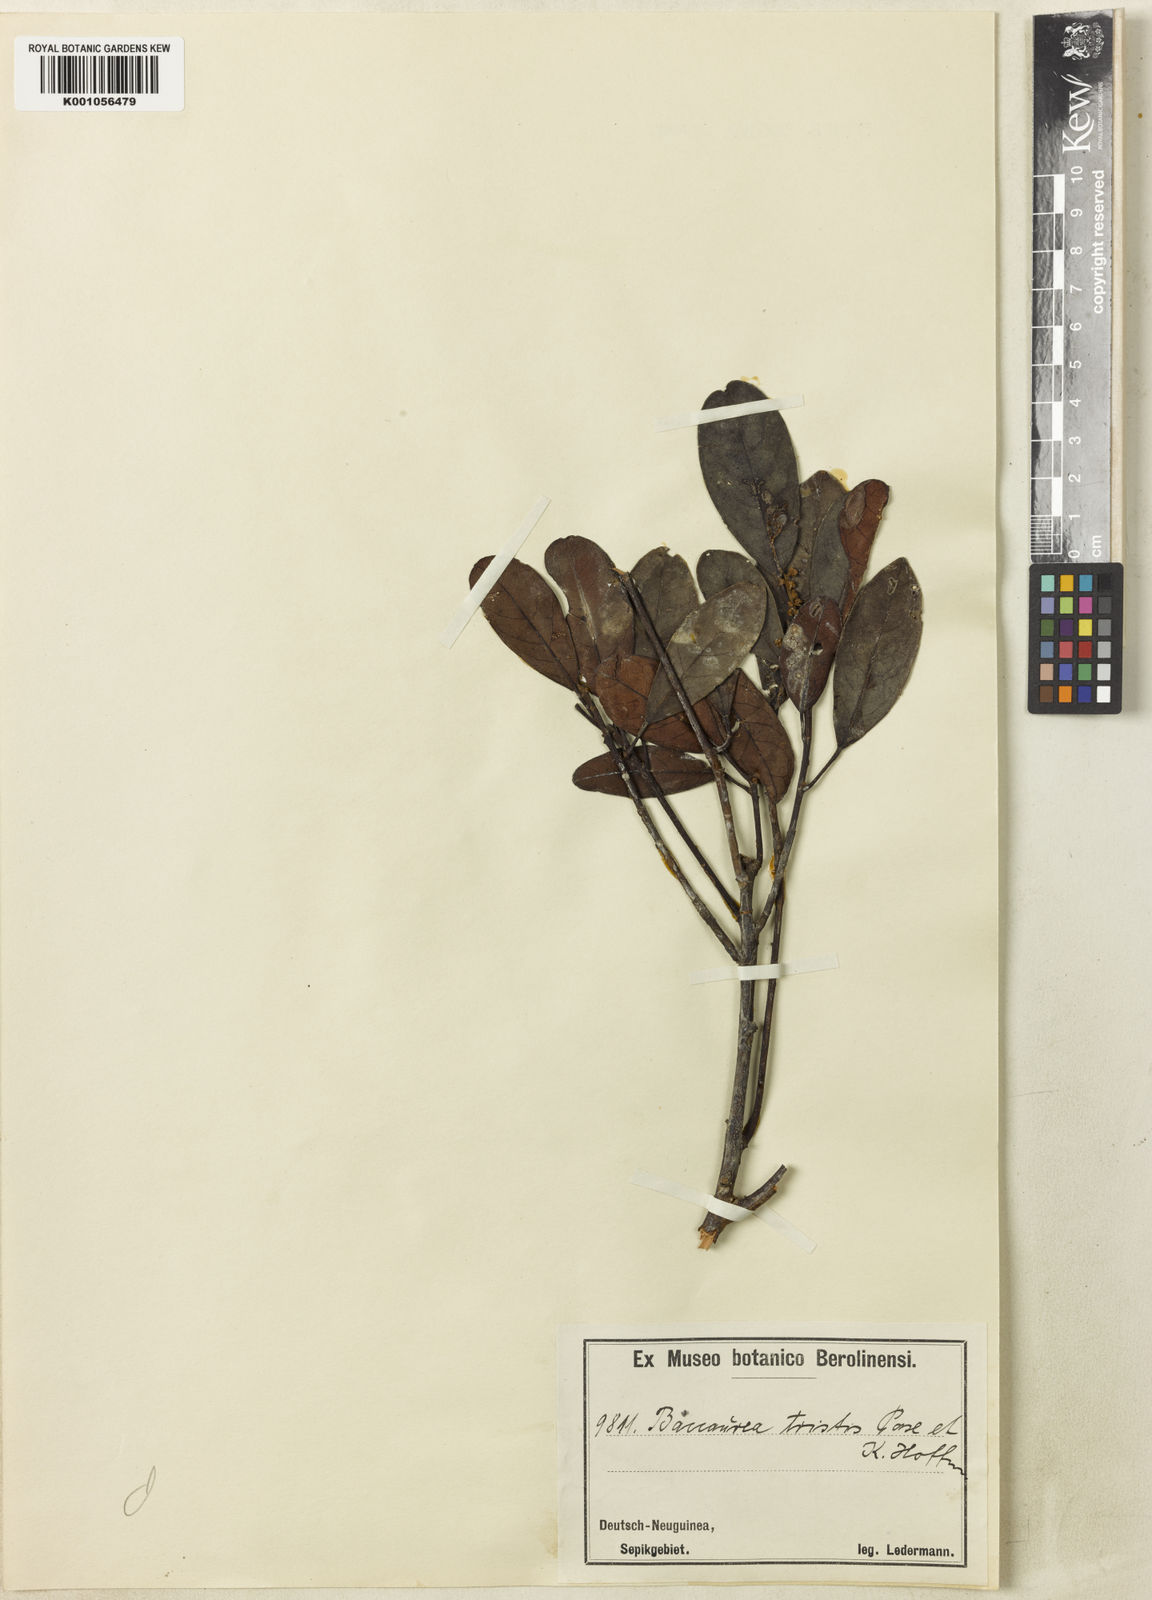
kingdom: Plantae
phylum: Tracheophyta
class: Magnoliopsida
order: Malpighiales
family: Phyllanthaceae
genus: Baccaurea
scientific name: Baccaurea nanihua
